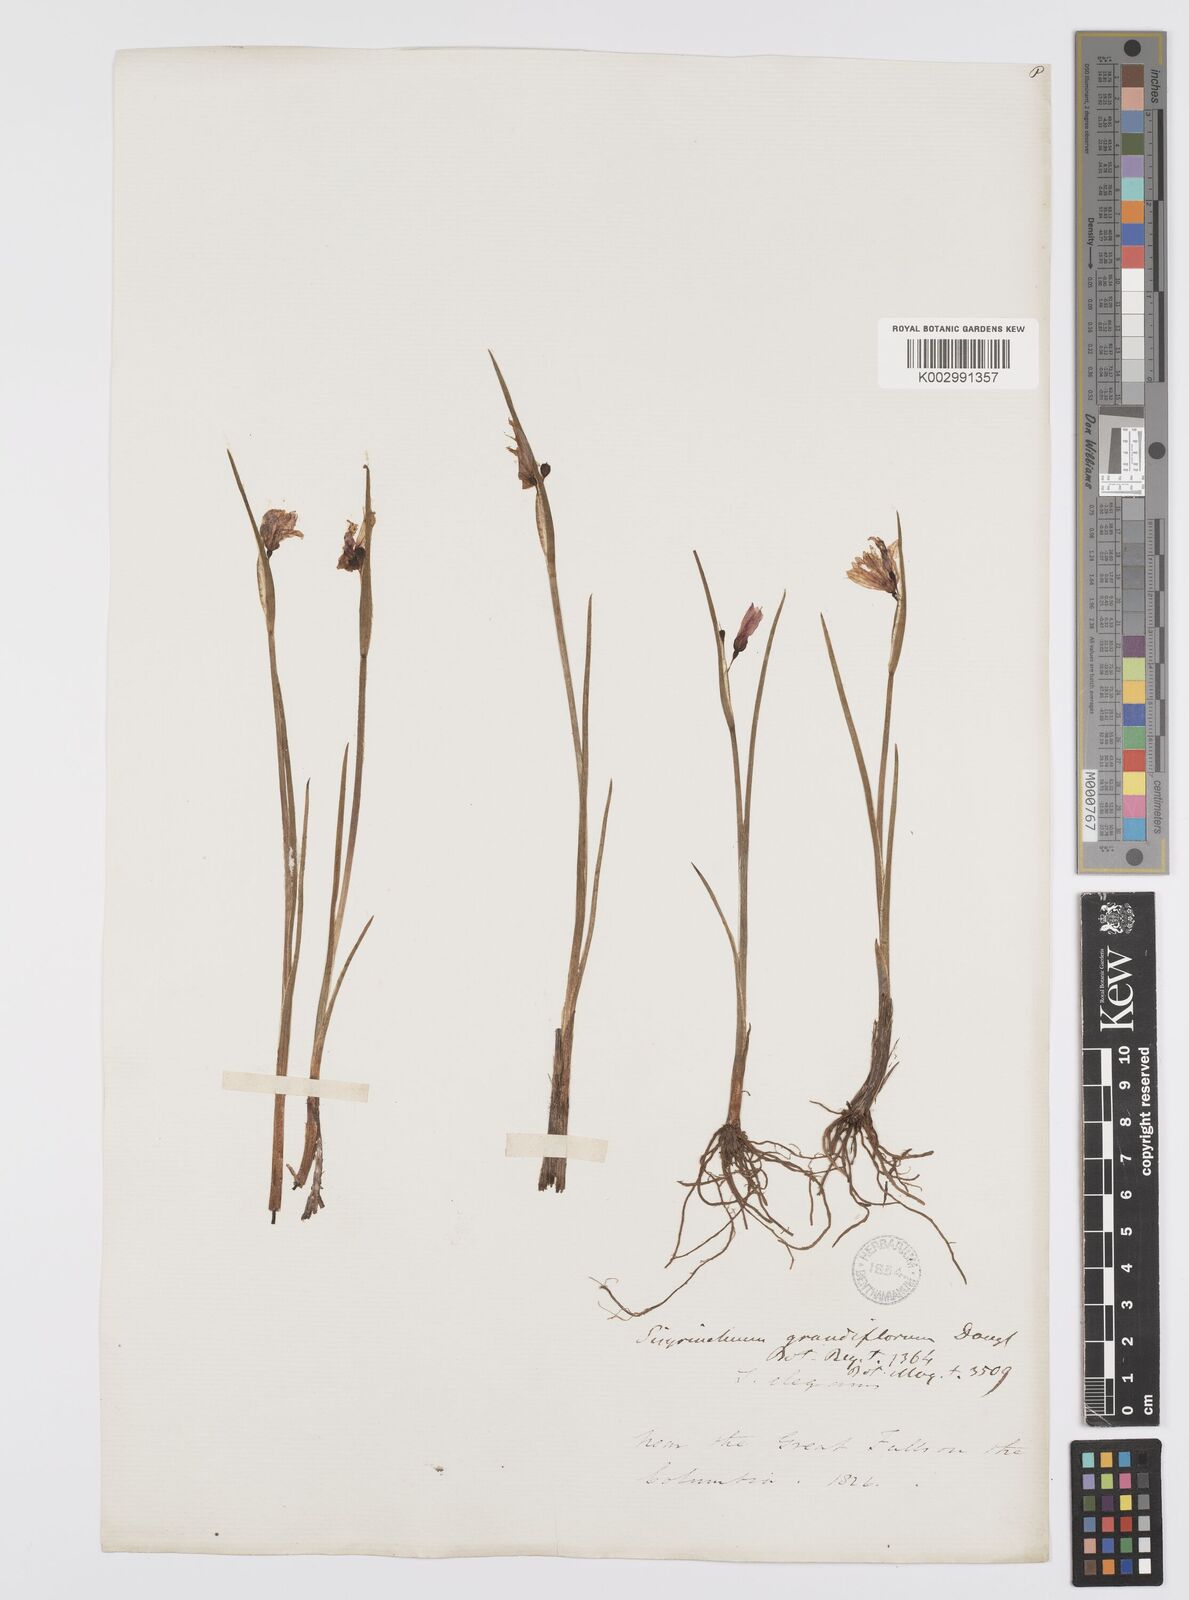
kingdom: Plantae
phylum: Tracheophyta
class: Liliopsida
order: Asparagales
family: Iridaceae
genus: Olsynium
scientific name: Olsynium douglasii
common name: Douglas' grasswidow
